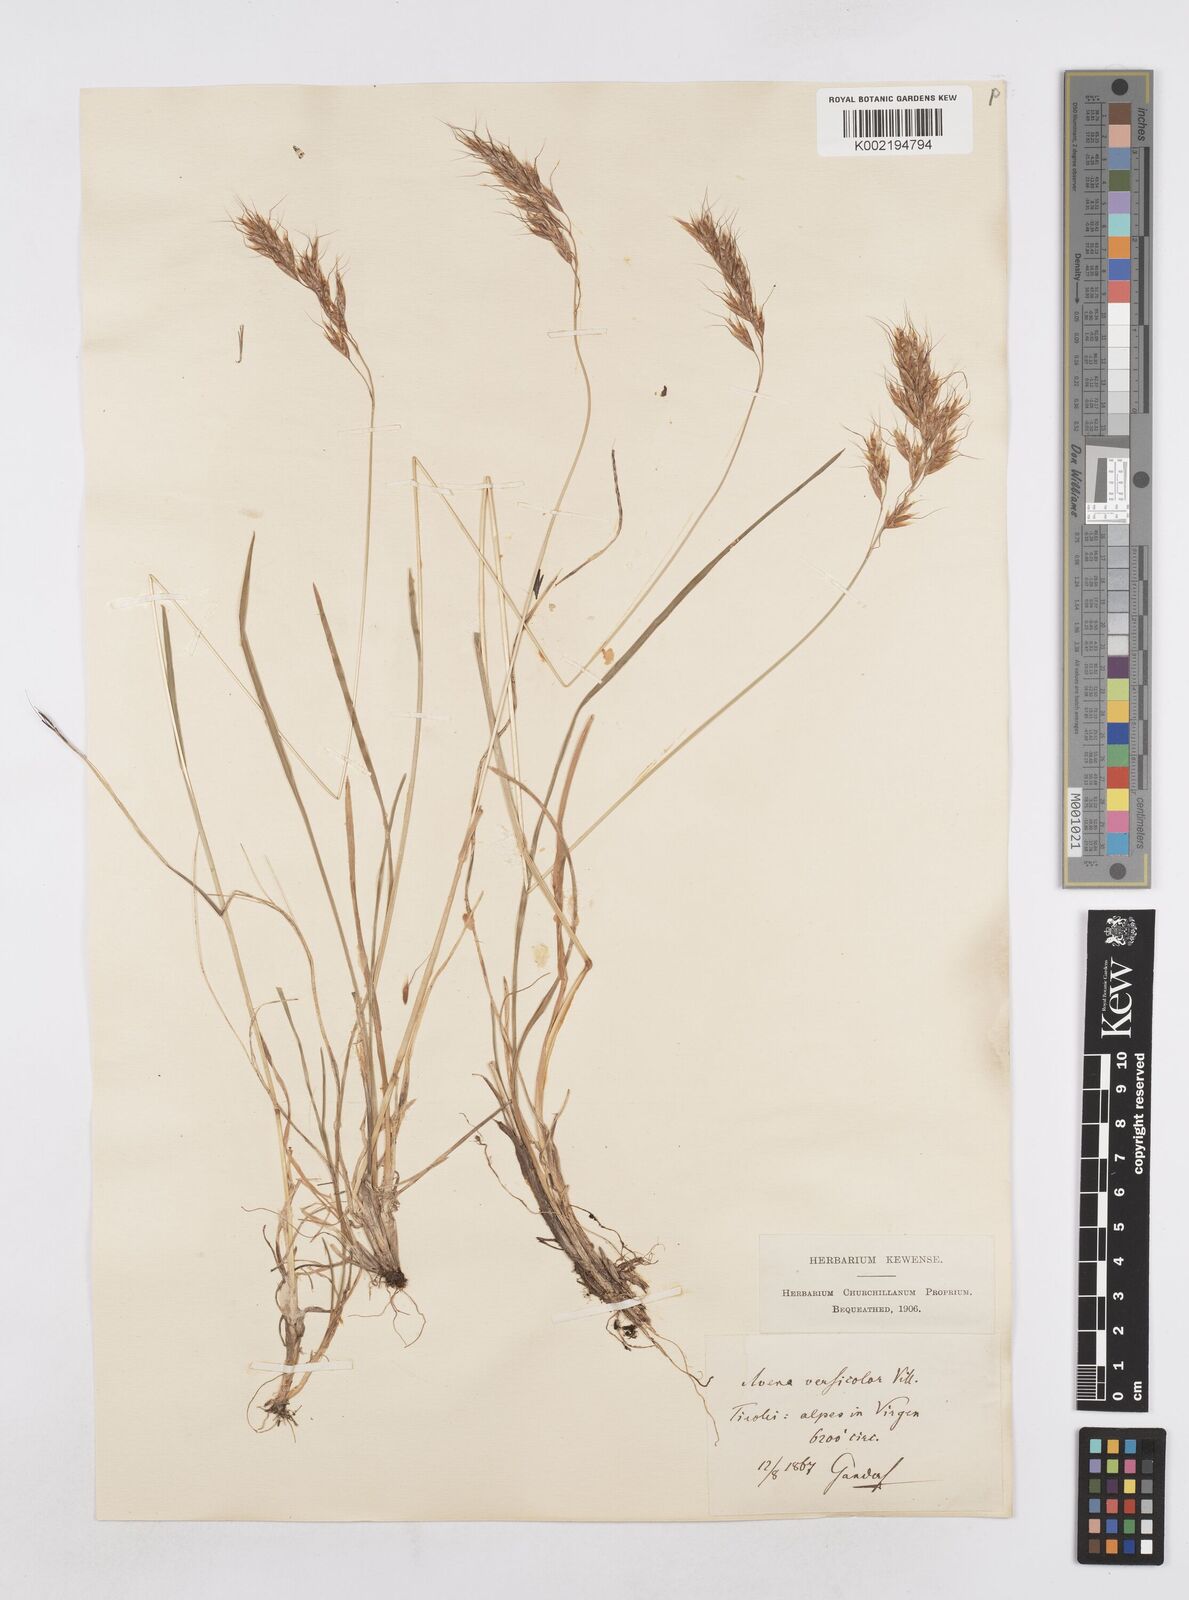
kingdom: Plantae
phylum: Tracheophyta
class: Liliopsida
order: Poales
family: Poaceae
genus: Helictochloa
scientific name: Helictochloa versicolor
